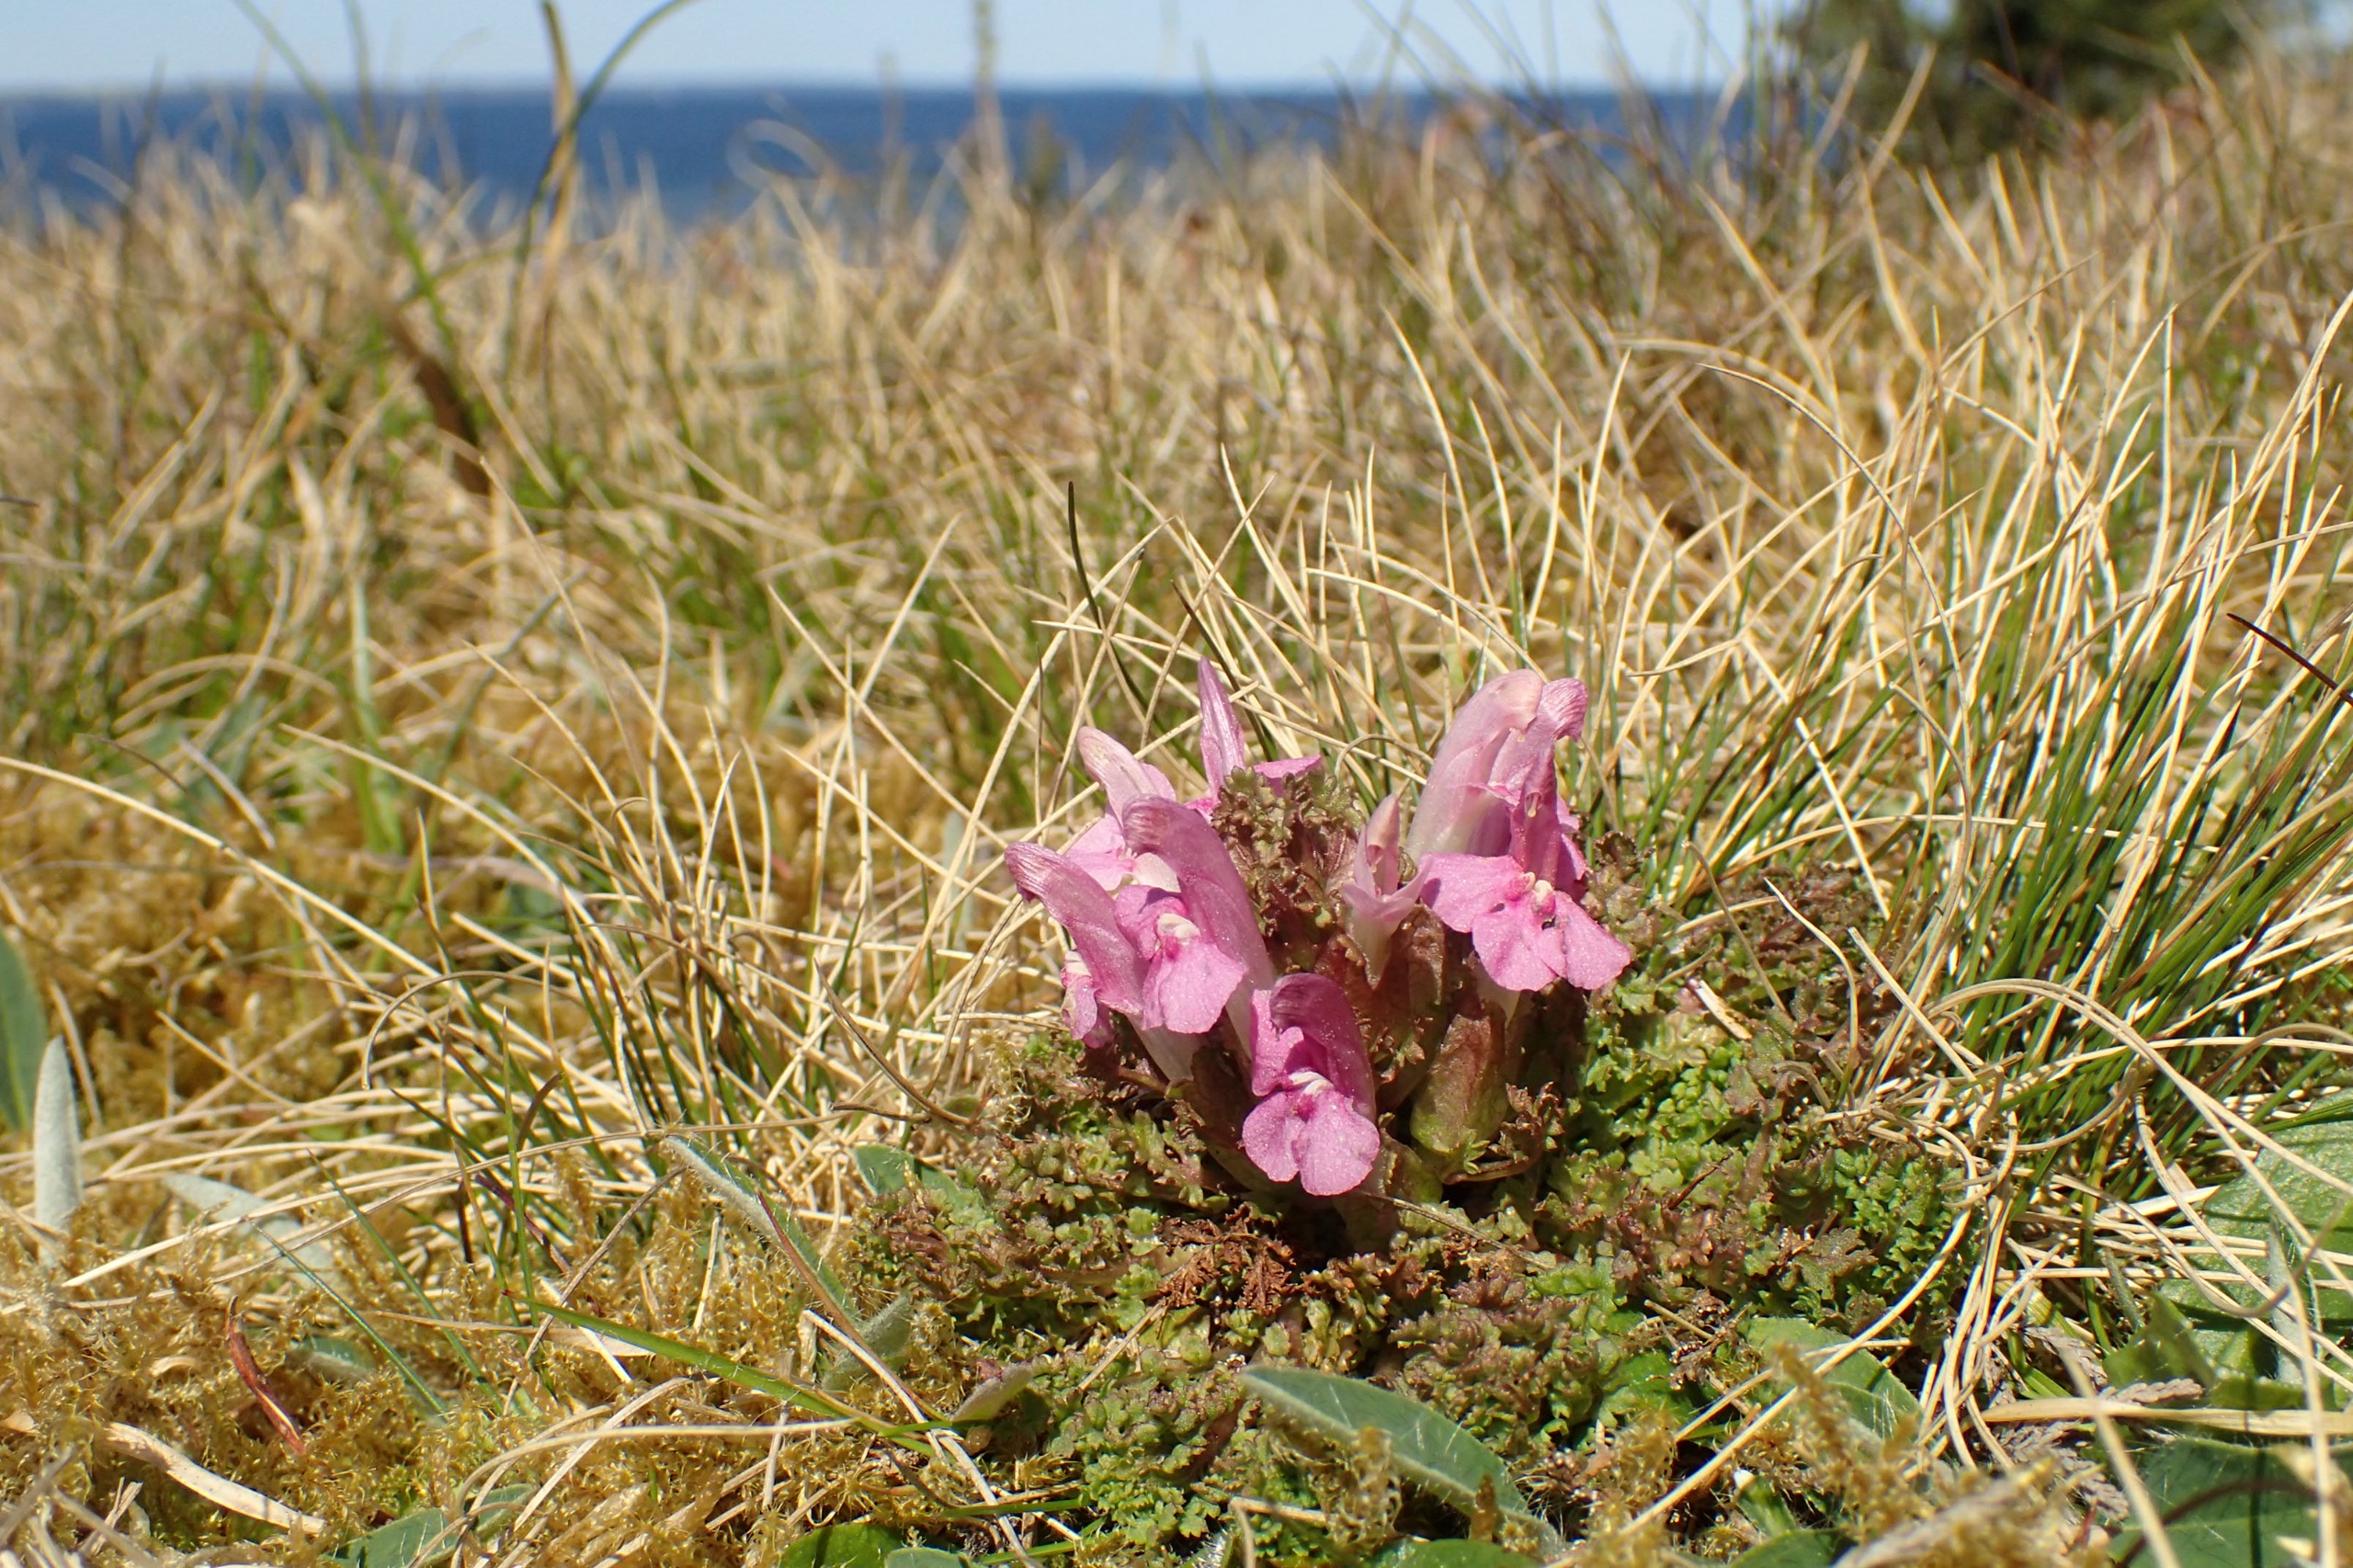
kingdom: Plantae
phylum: Tracheophyta
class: Magnoliopsida
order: Lamiales
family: Orobanchaceae
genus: Pedicularis
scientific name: Pedicularis sylvatica
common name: Mose-troldurt
